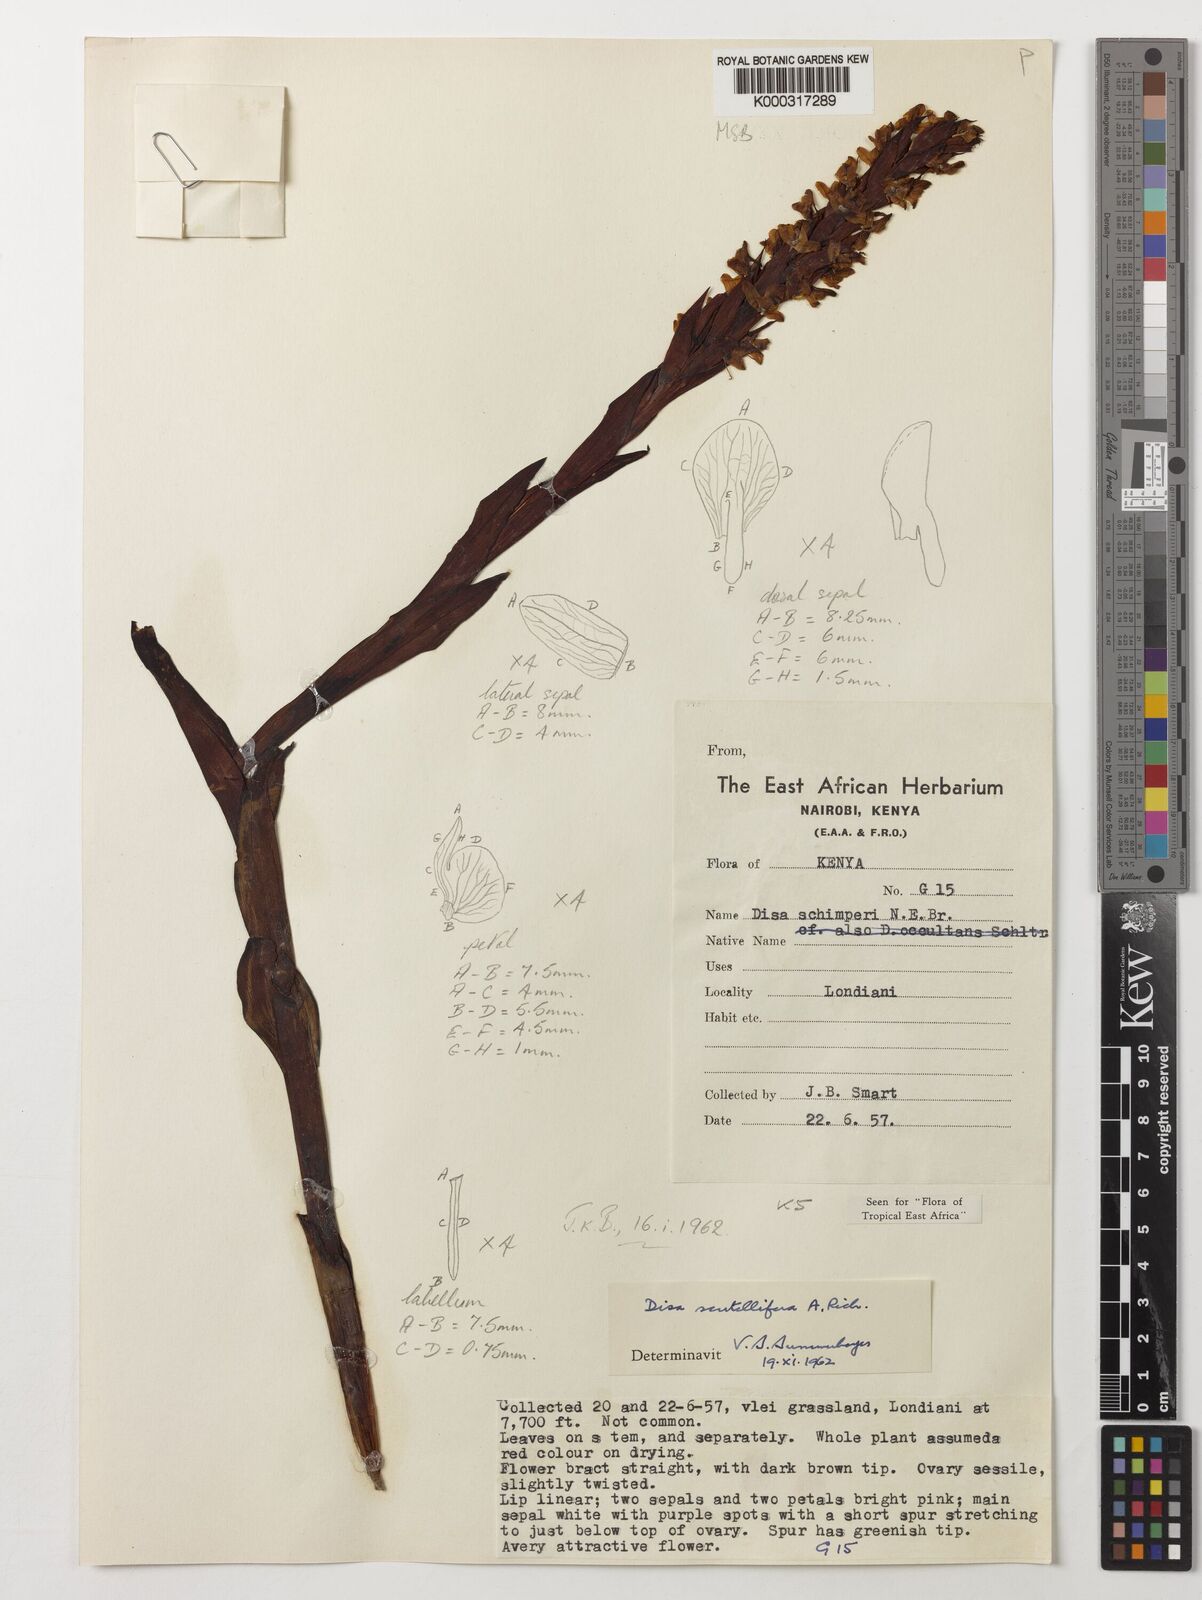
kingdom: Plantae
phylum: Tracheophyta
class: Liliopsida
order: Asparagales
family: Orchidaceae
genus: Disa
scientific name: Disa scutellifera
